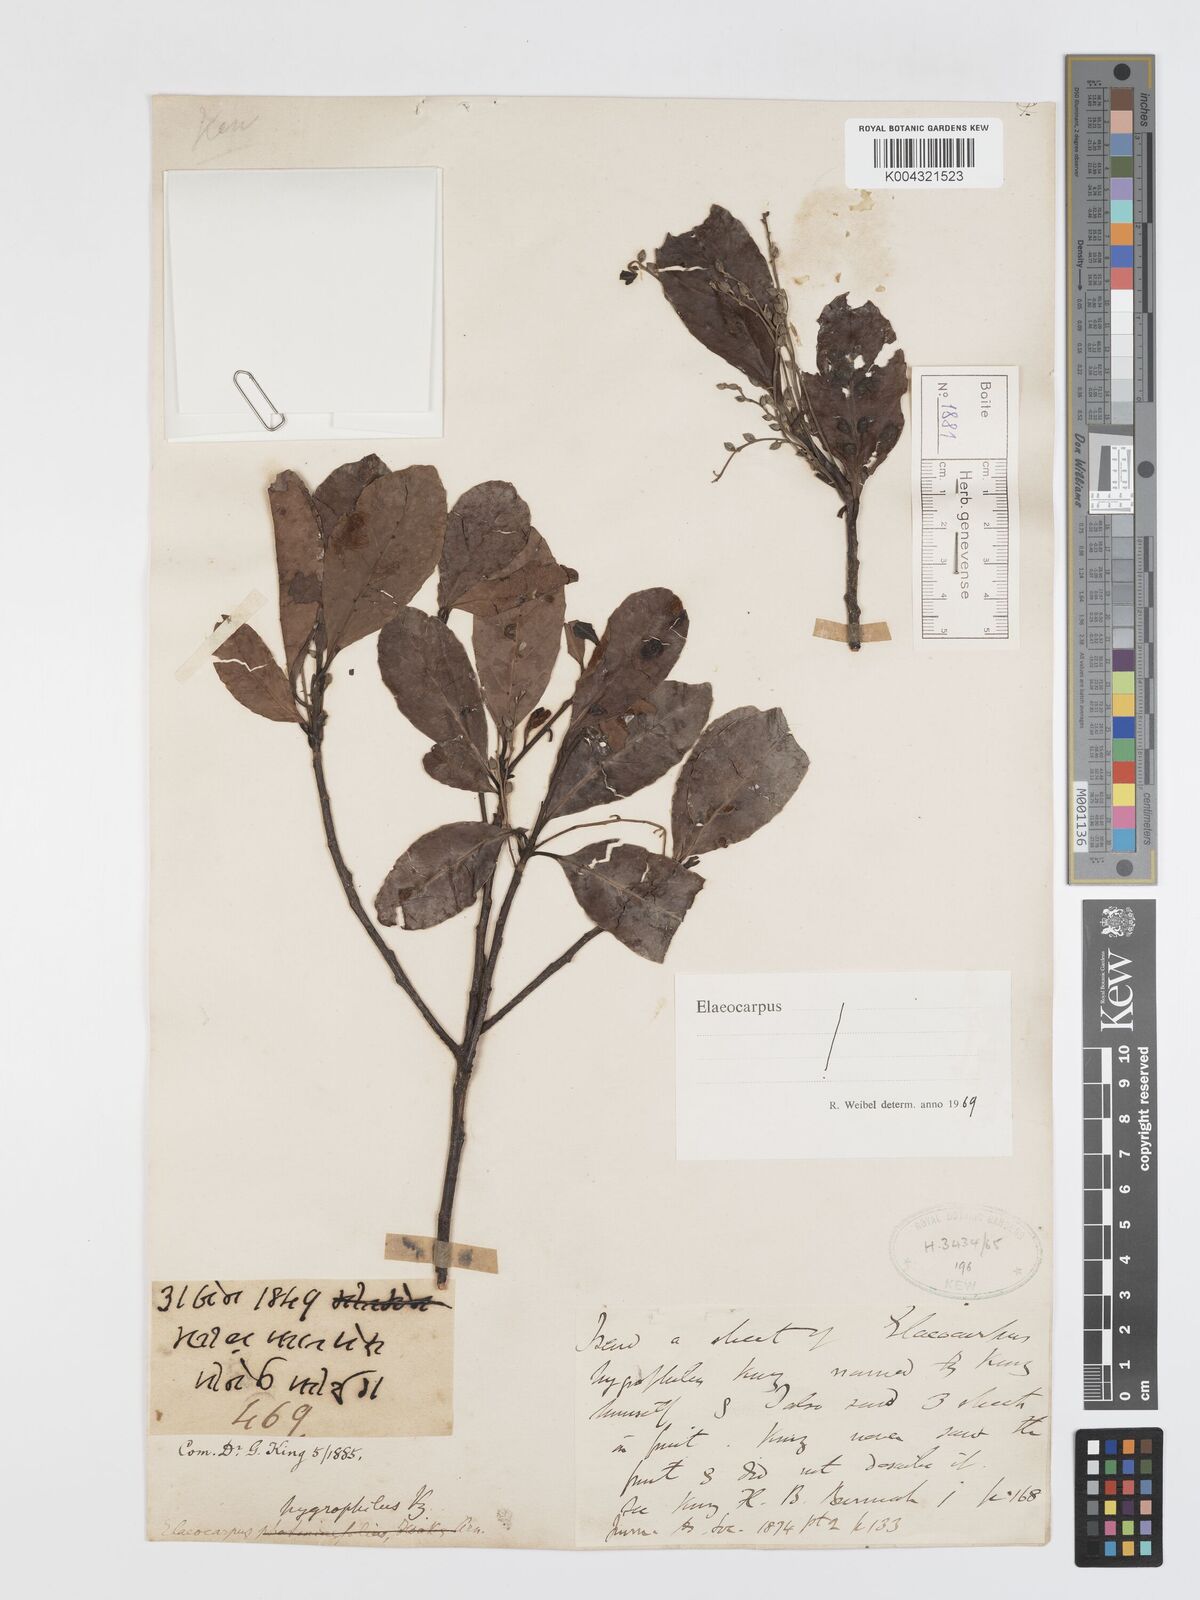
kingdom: Plantae
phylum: Tracheophyta
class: Magnoliopsida
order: Oxalidales
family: Elaeocarpaceae
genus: Elaeocarpus
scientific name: Elaeocarpus hygrophilus
